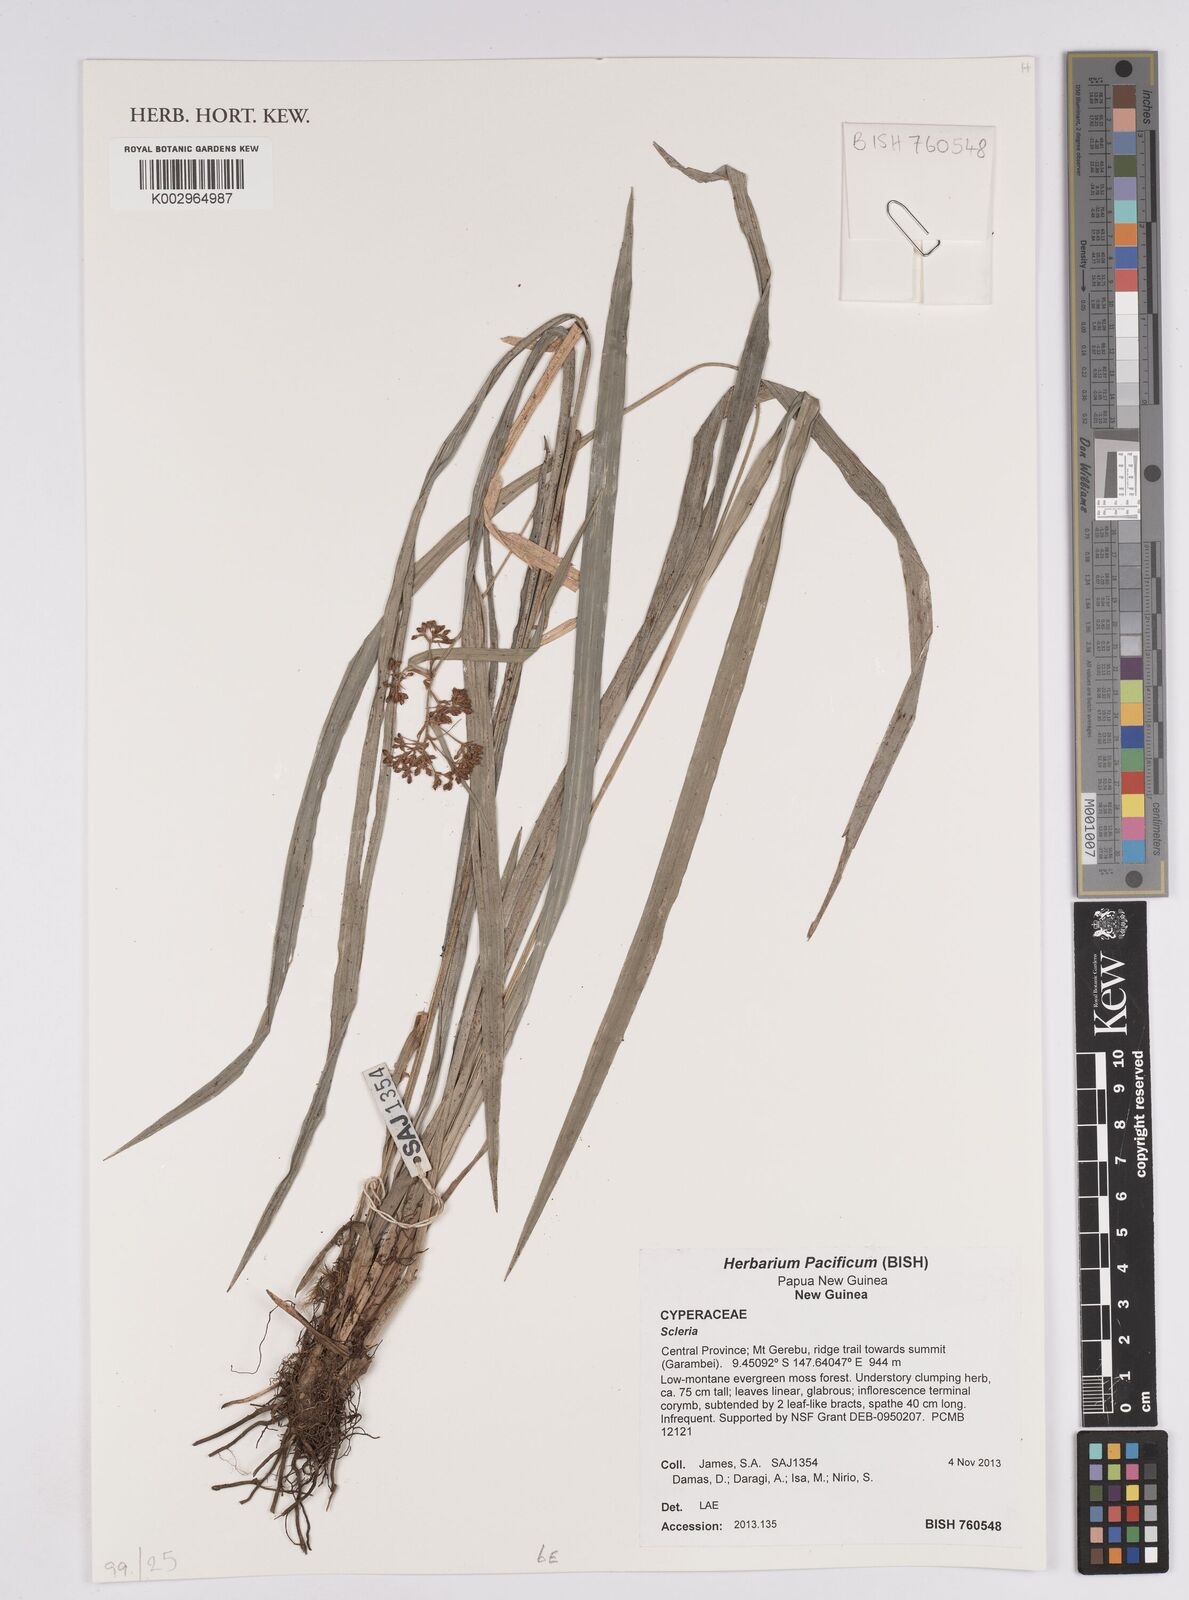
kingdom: Plantae
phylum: Tracheophyta
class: Liliopsida
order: Poales
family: Cyperaceae
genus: Scleria
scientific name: Scleria
